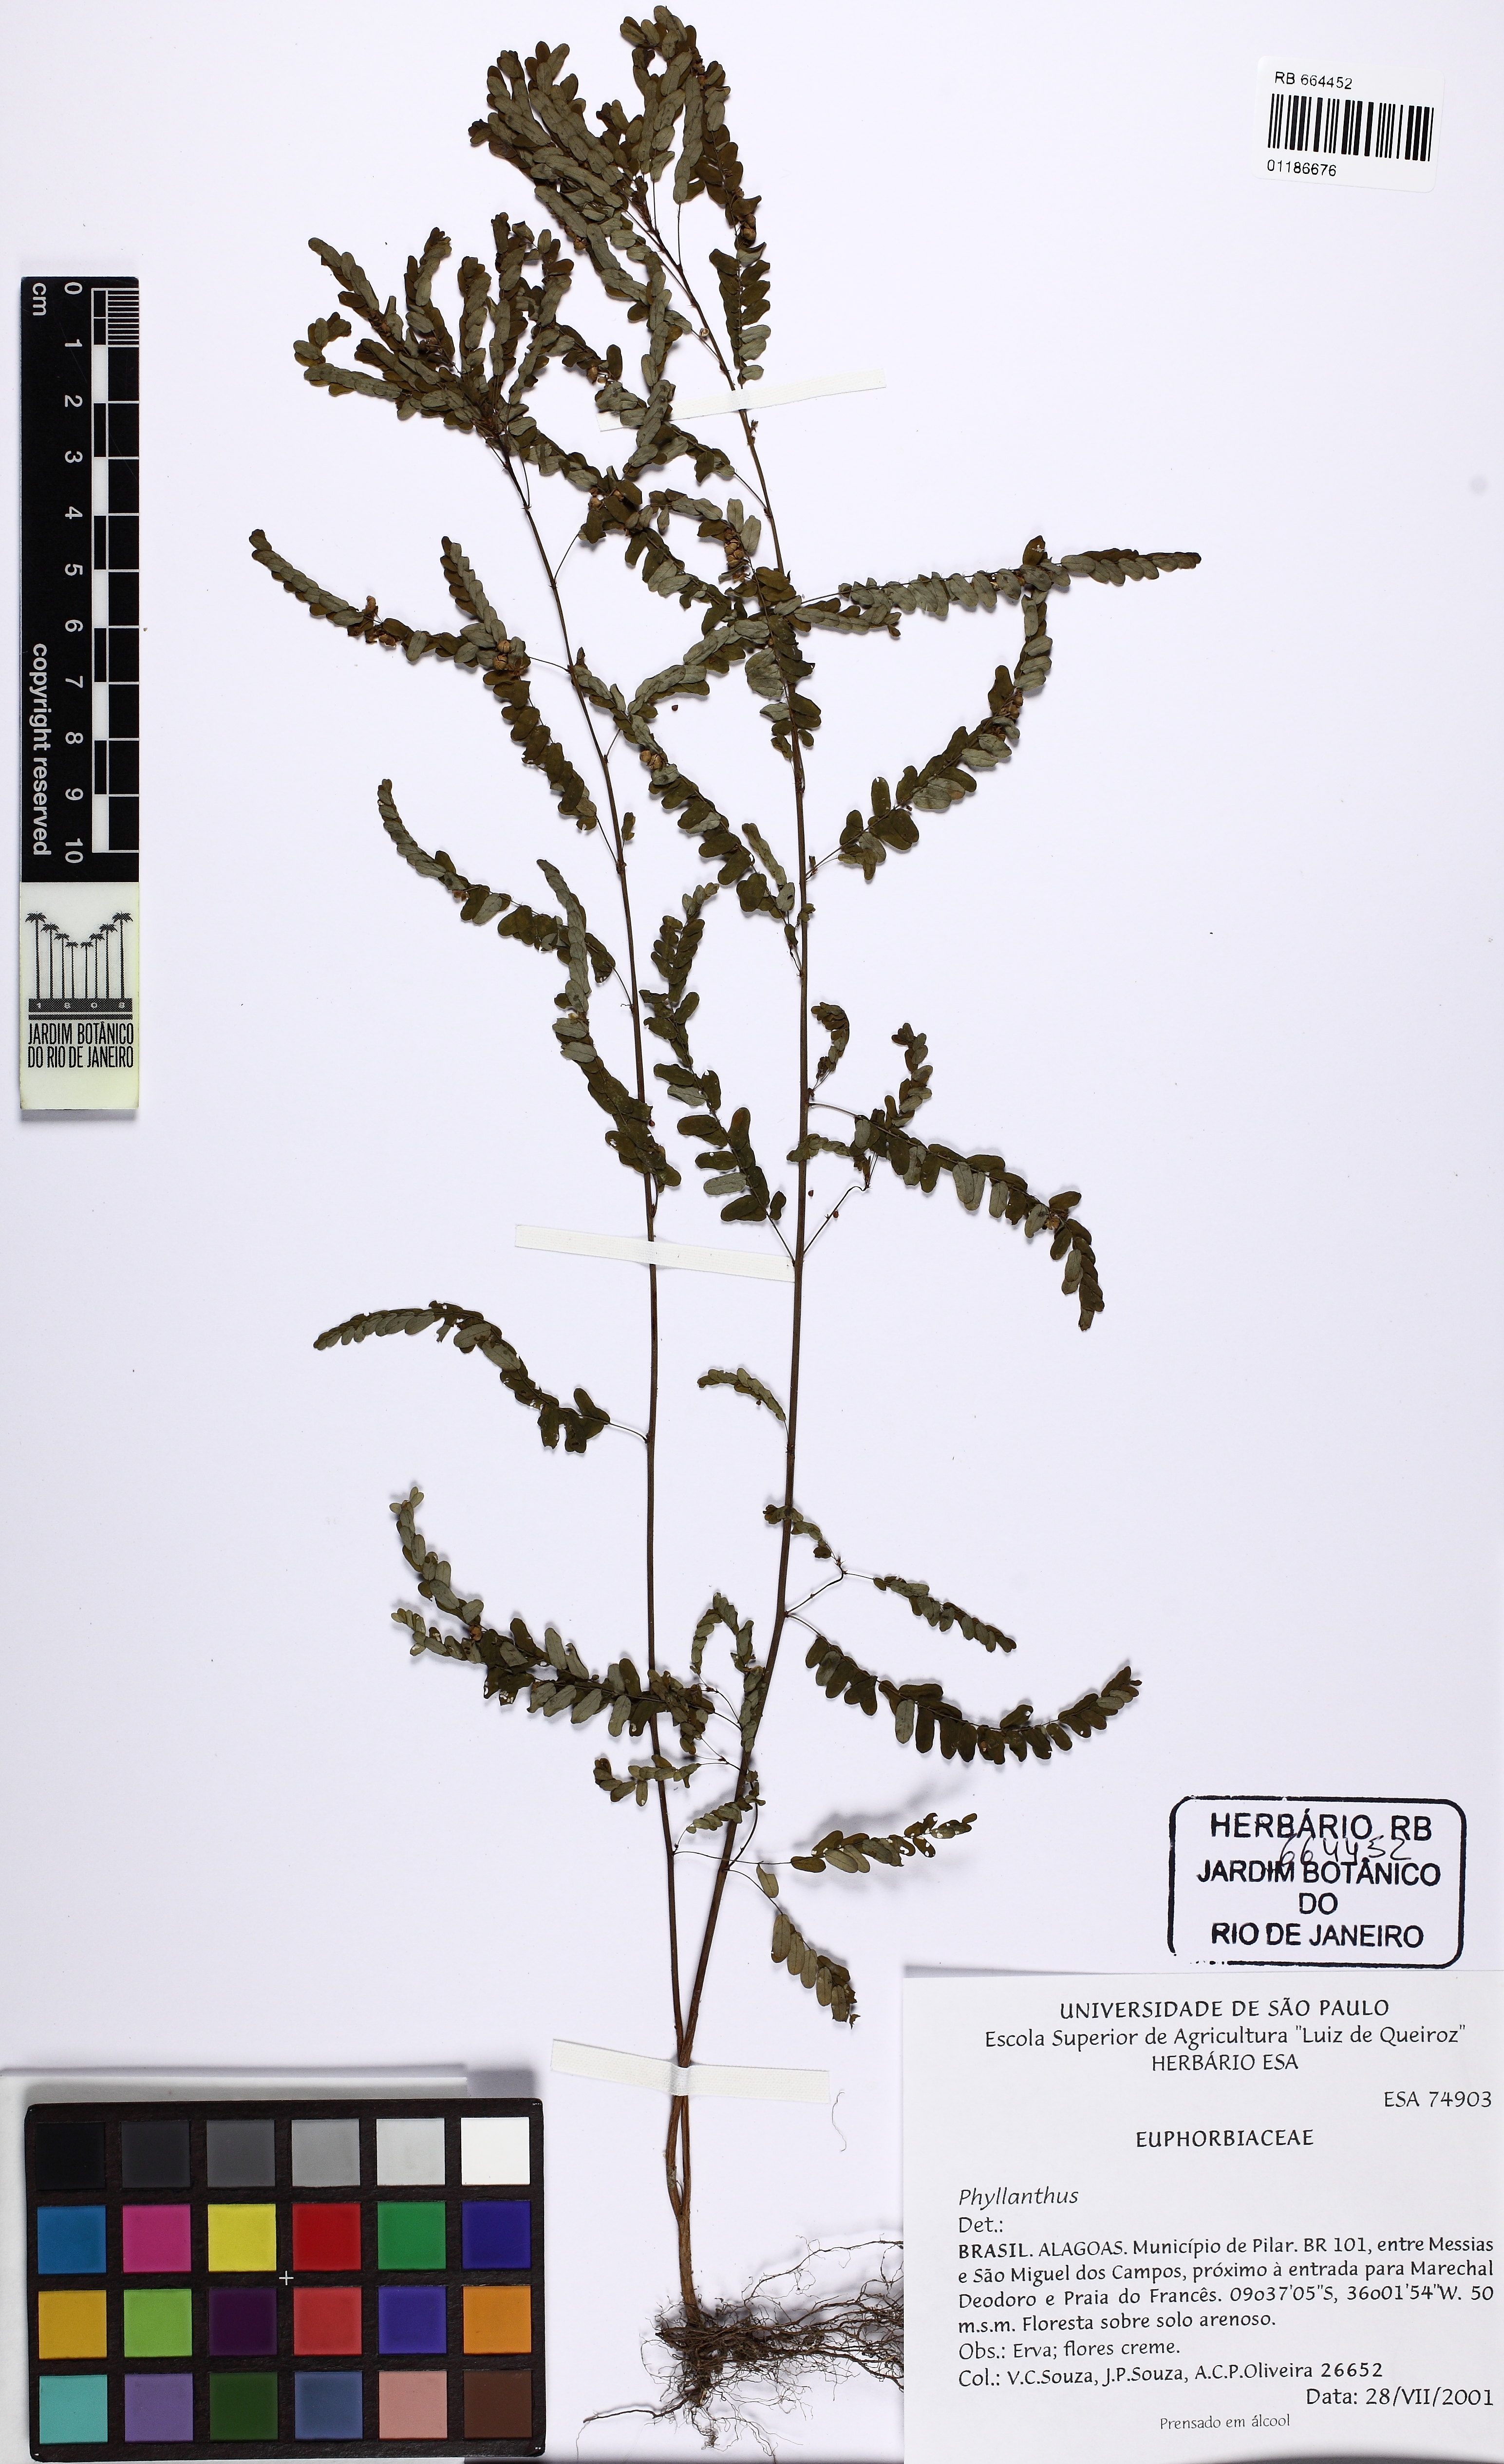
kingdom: Plantae
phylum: Tracheophyta
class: Magnoliopsida
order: Malpighiales
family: Phyllanthaceae
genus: Phyllanthus
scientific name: Phyllanthus niruri
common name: Niruri
